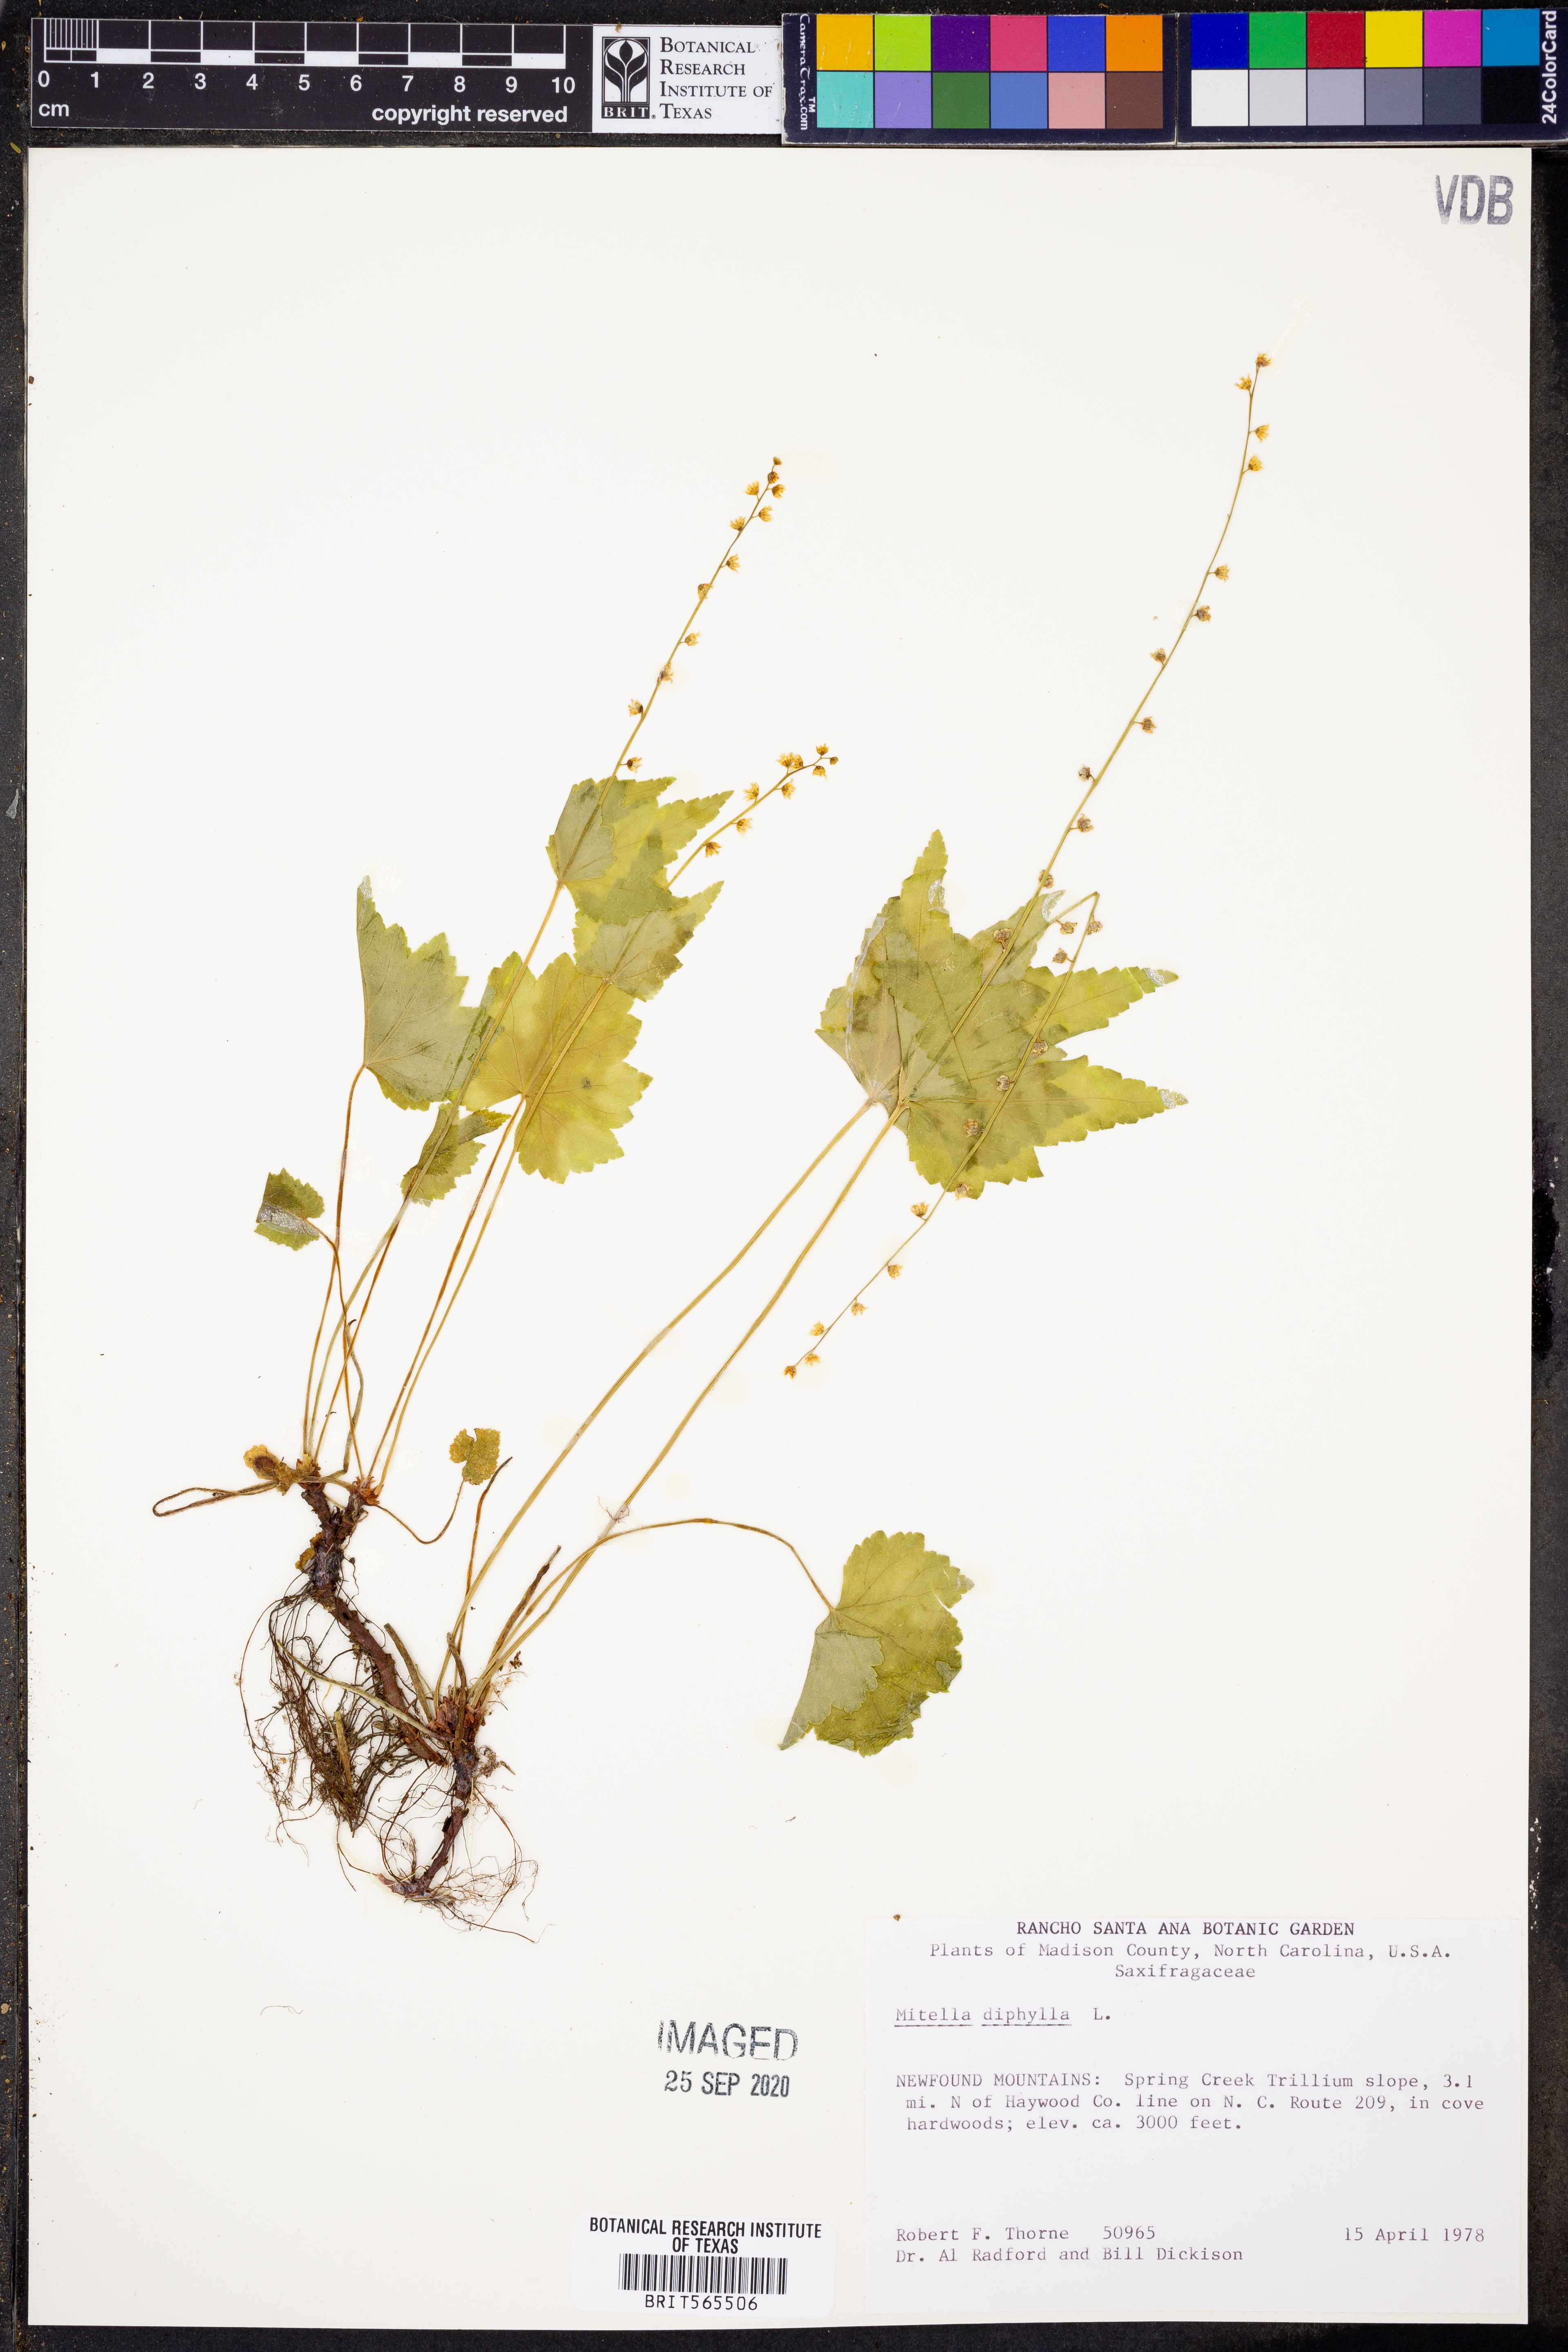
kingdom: Plantae
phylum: Tracheophyta
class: Magnoliopsida
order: Saxifragales
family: Saxifragaceae
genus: Mitella
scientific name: Mitella diphylla
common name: Coolwort
